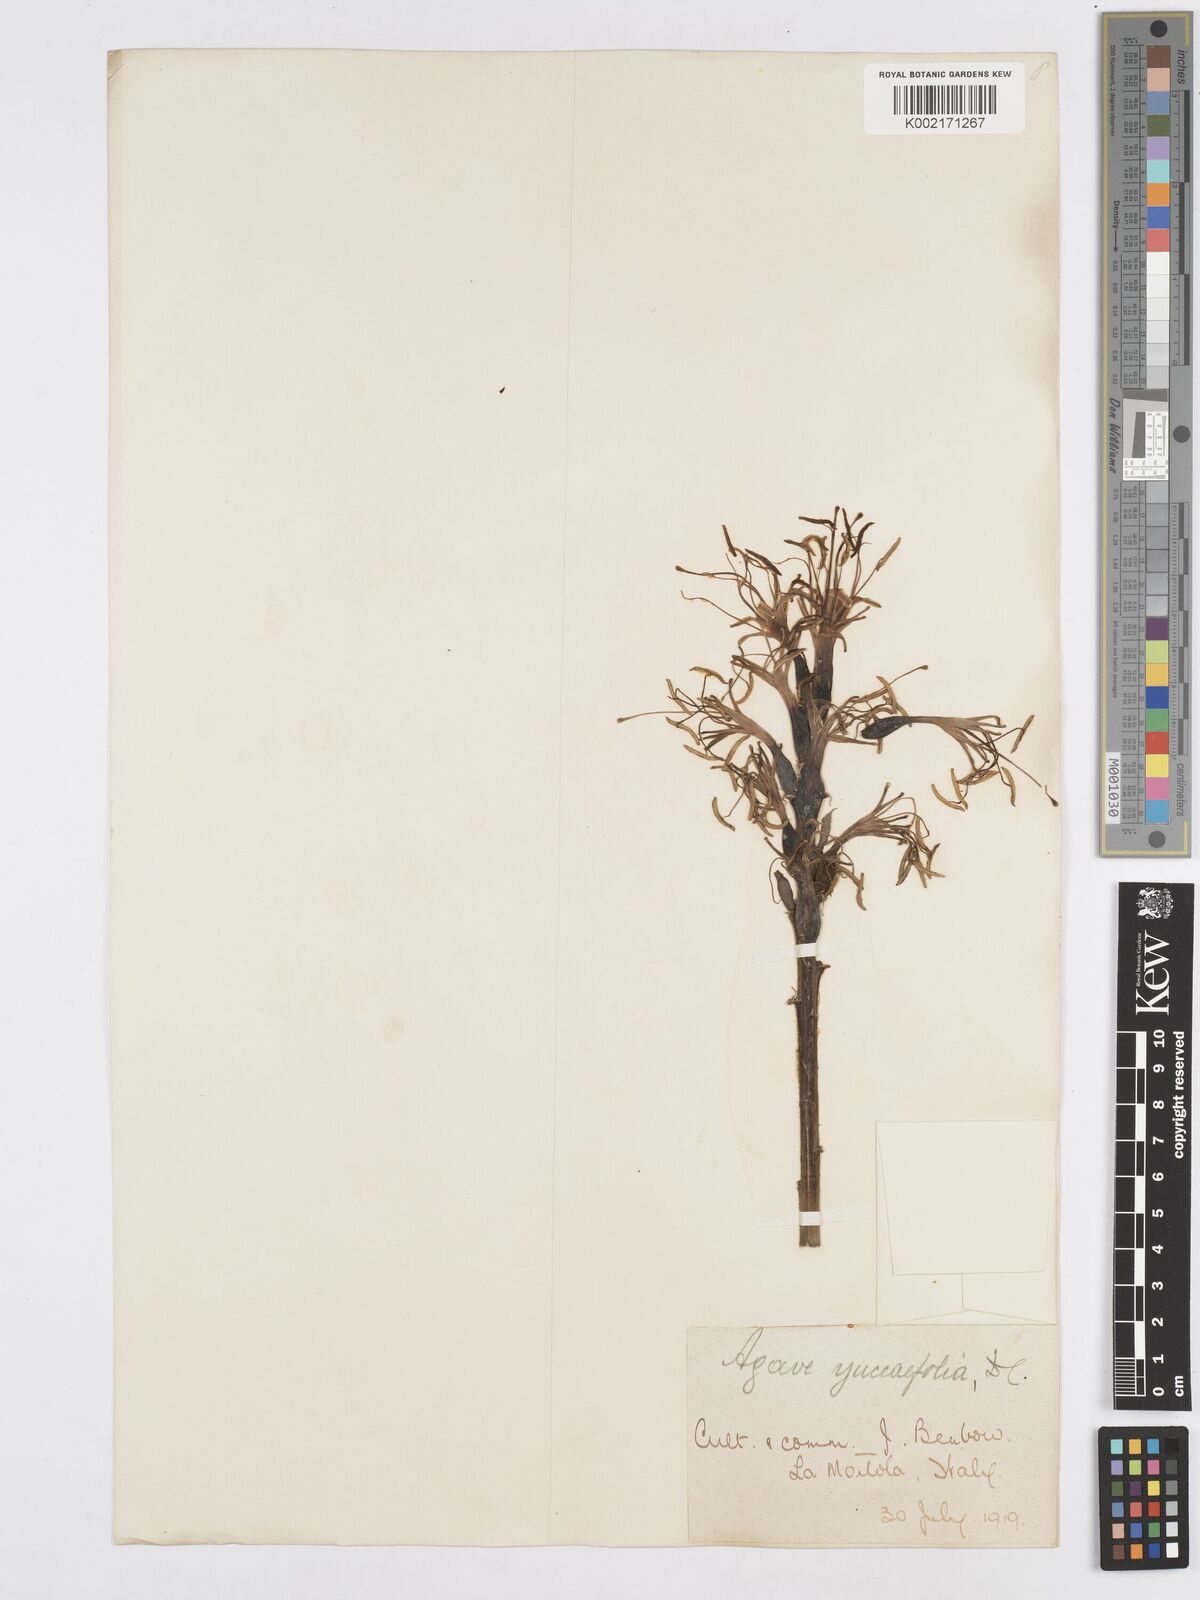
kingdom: Plantae
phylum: Tracheophyta
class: Liliopsida
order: Asparagales
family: Asparagaceae
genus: Agave
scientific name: Agave spicata
